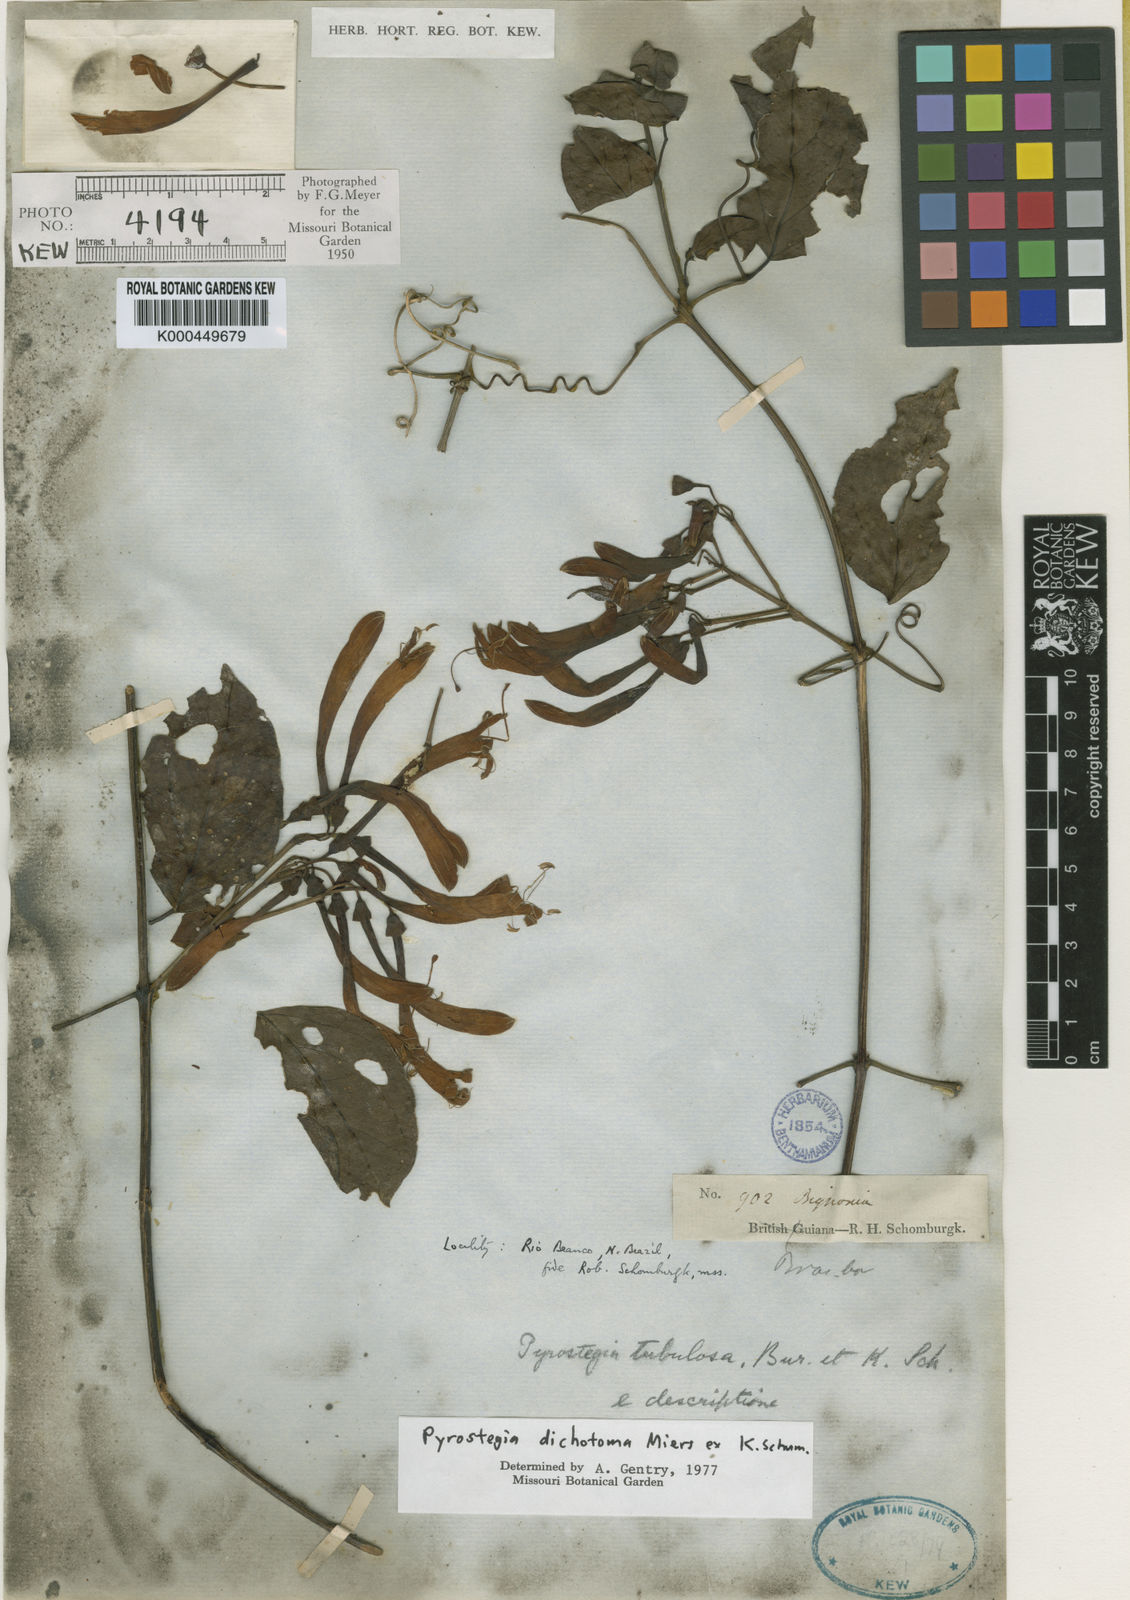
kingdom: Plantae
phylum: Tracheophyta
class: Magnoliopsida
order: Lamiales
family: Bignoniaceae
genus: Pyrostegia
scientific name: Pyrostegia
